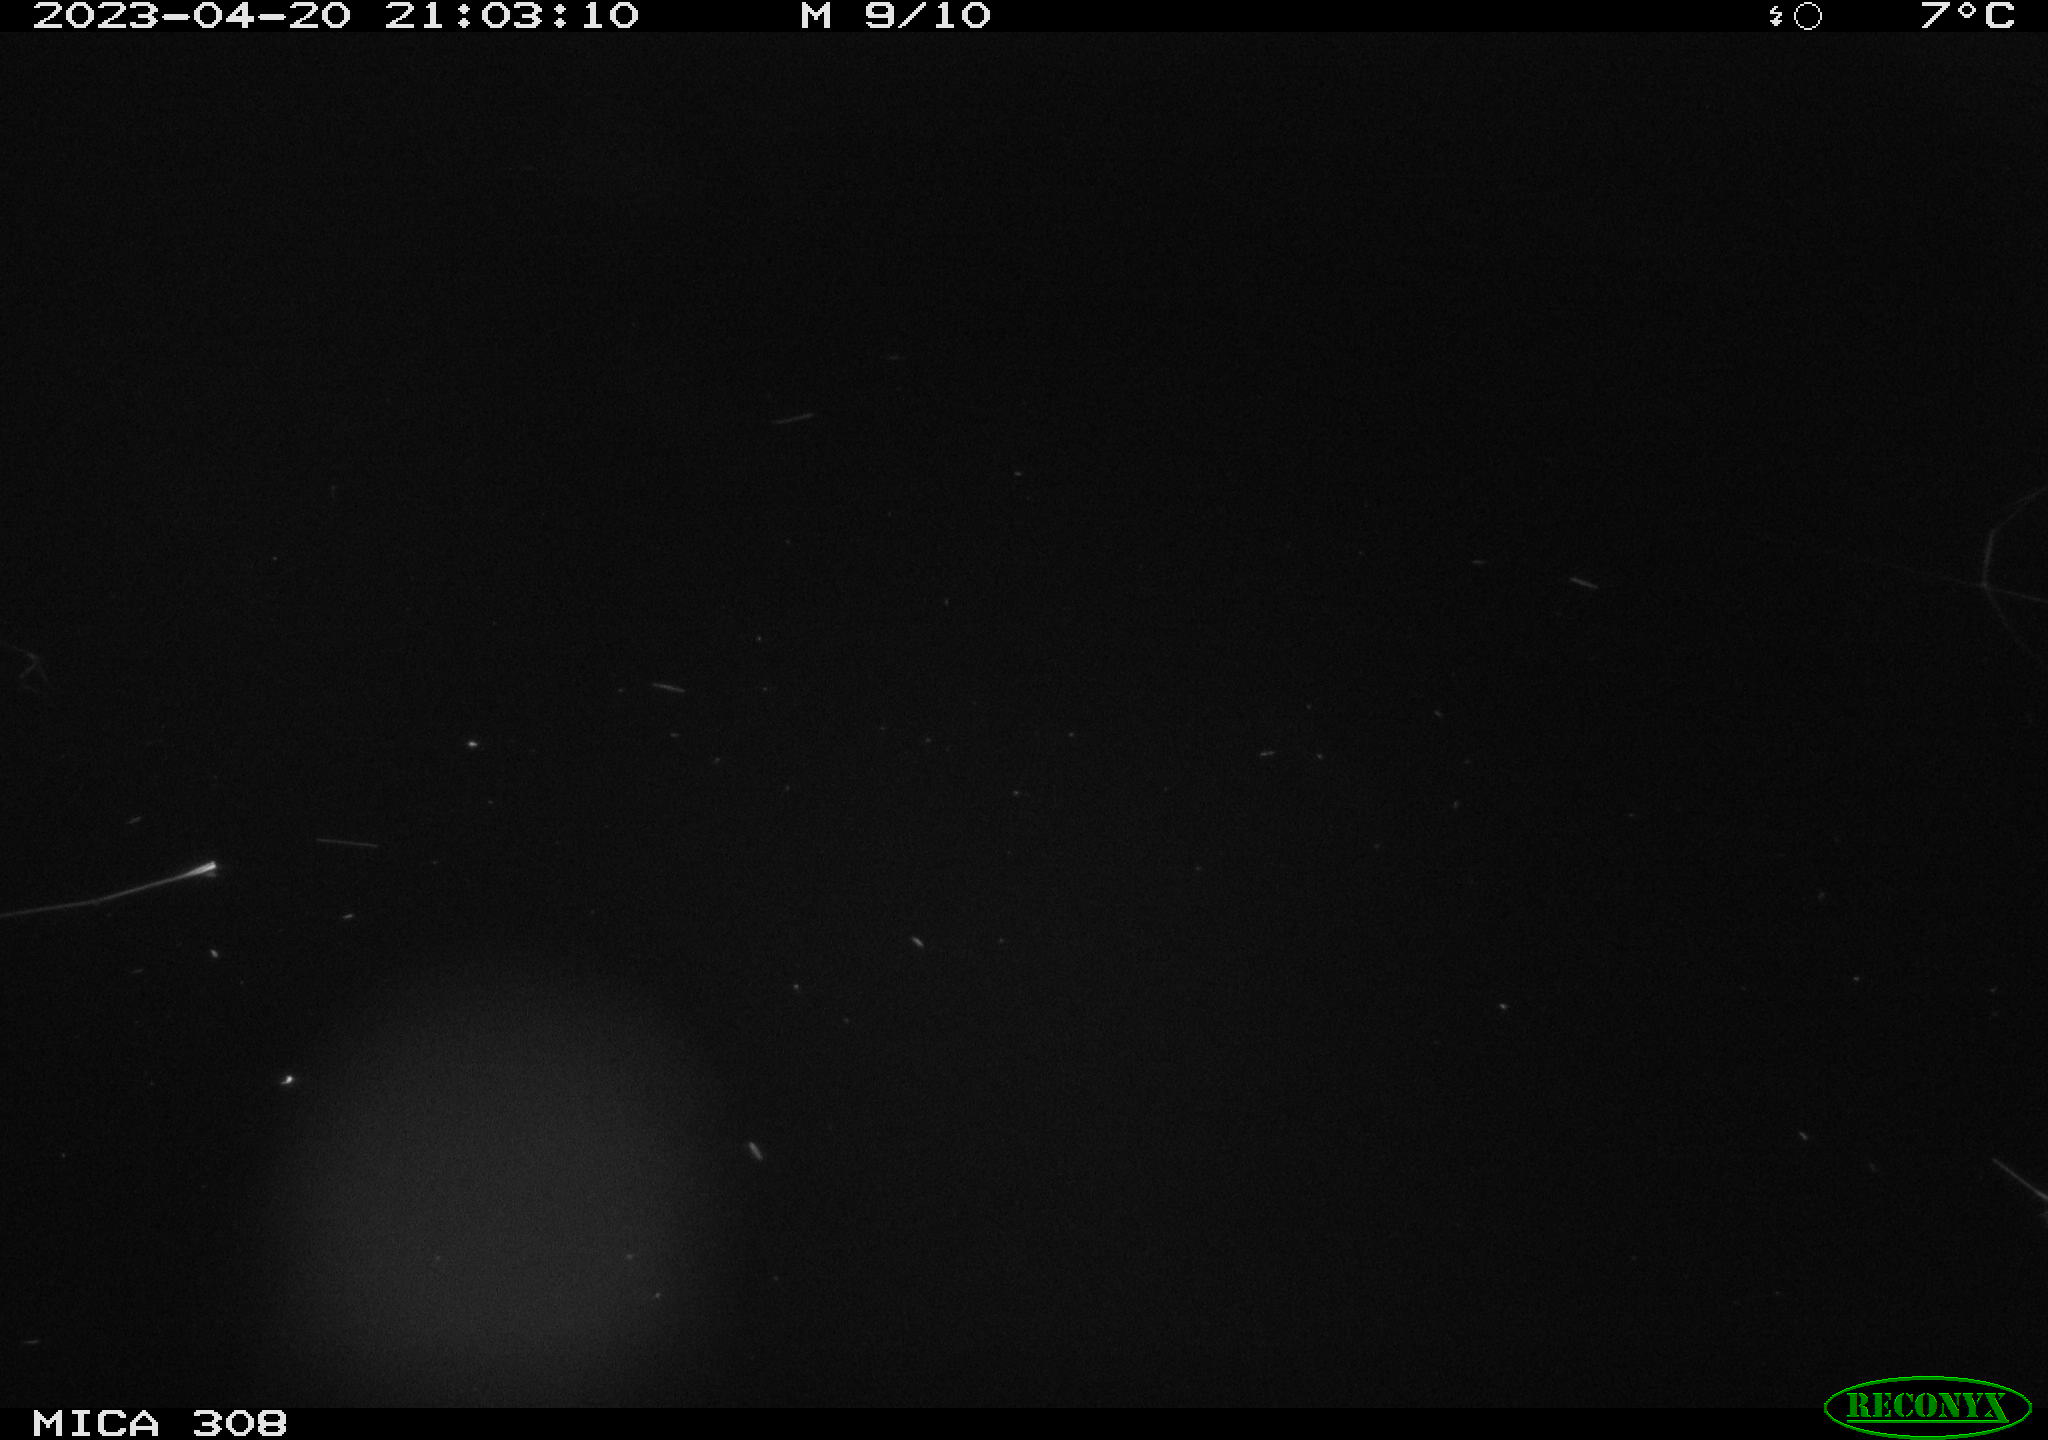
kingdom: Animalia
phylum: Chordata
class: Mammalia
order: Rodentia
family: Cricetidae
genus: Ondatra
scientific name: Ondatra zibethicus
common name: Muskrat
